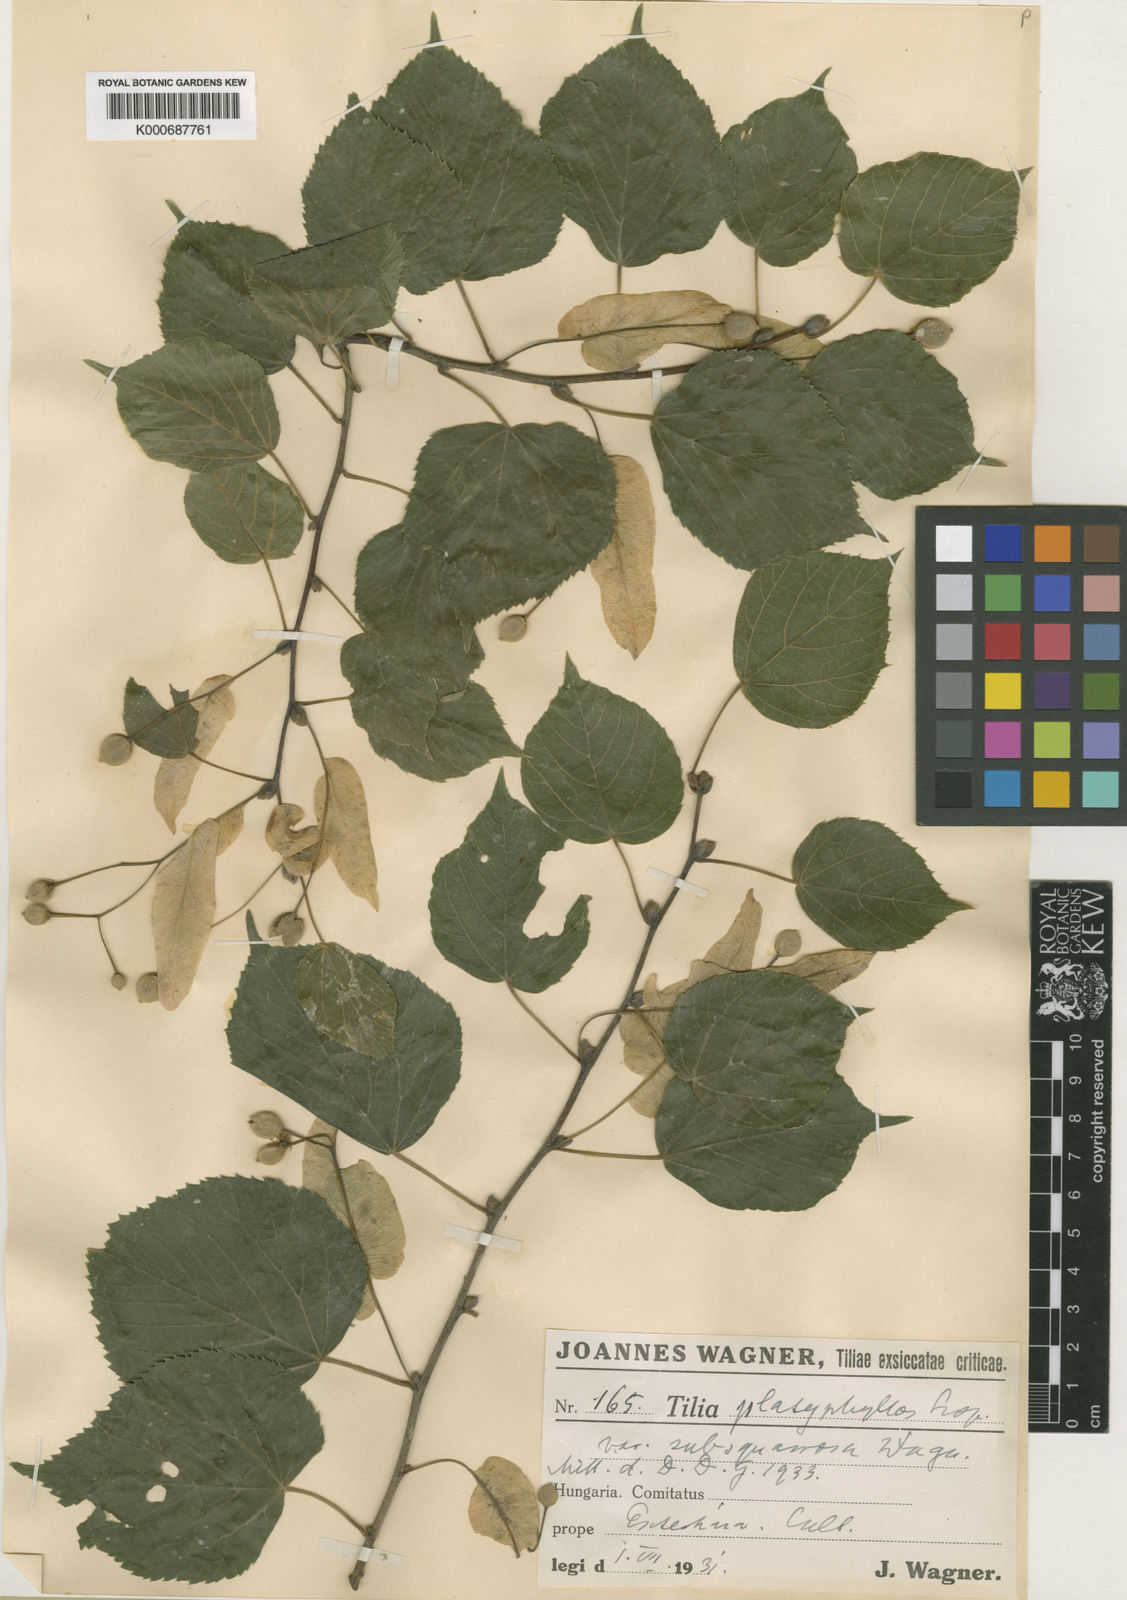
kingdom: Plantae
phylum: Tracheophyta
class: Magnoliopsida
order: Malvales
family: Malvaceae
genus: Tilia
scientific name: Tilia platyphyllos
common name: Large-leaved lime
